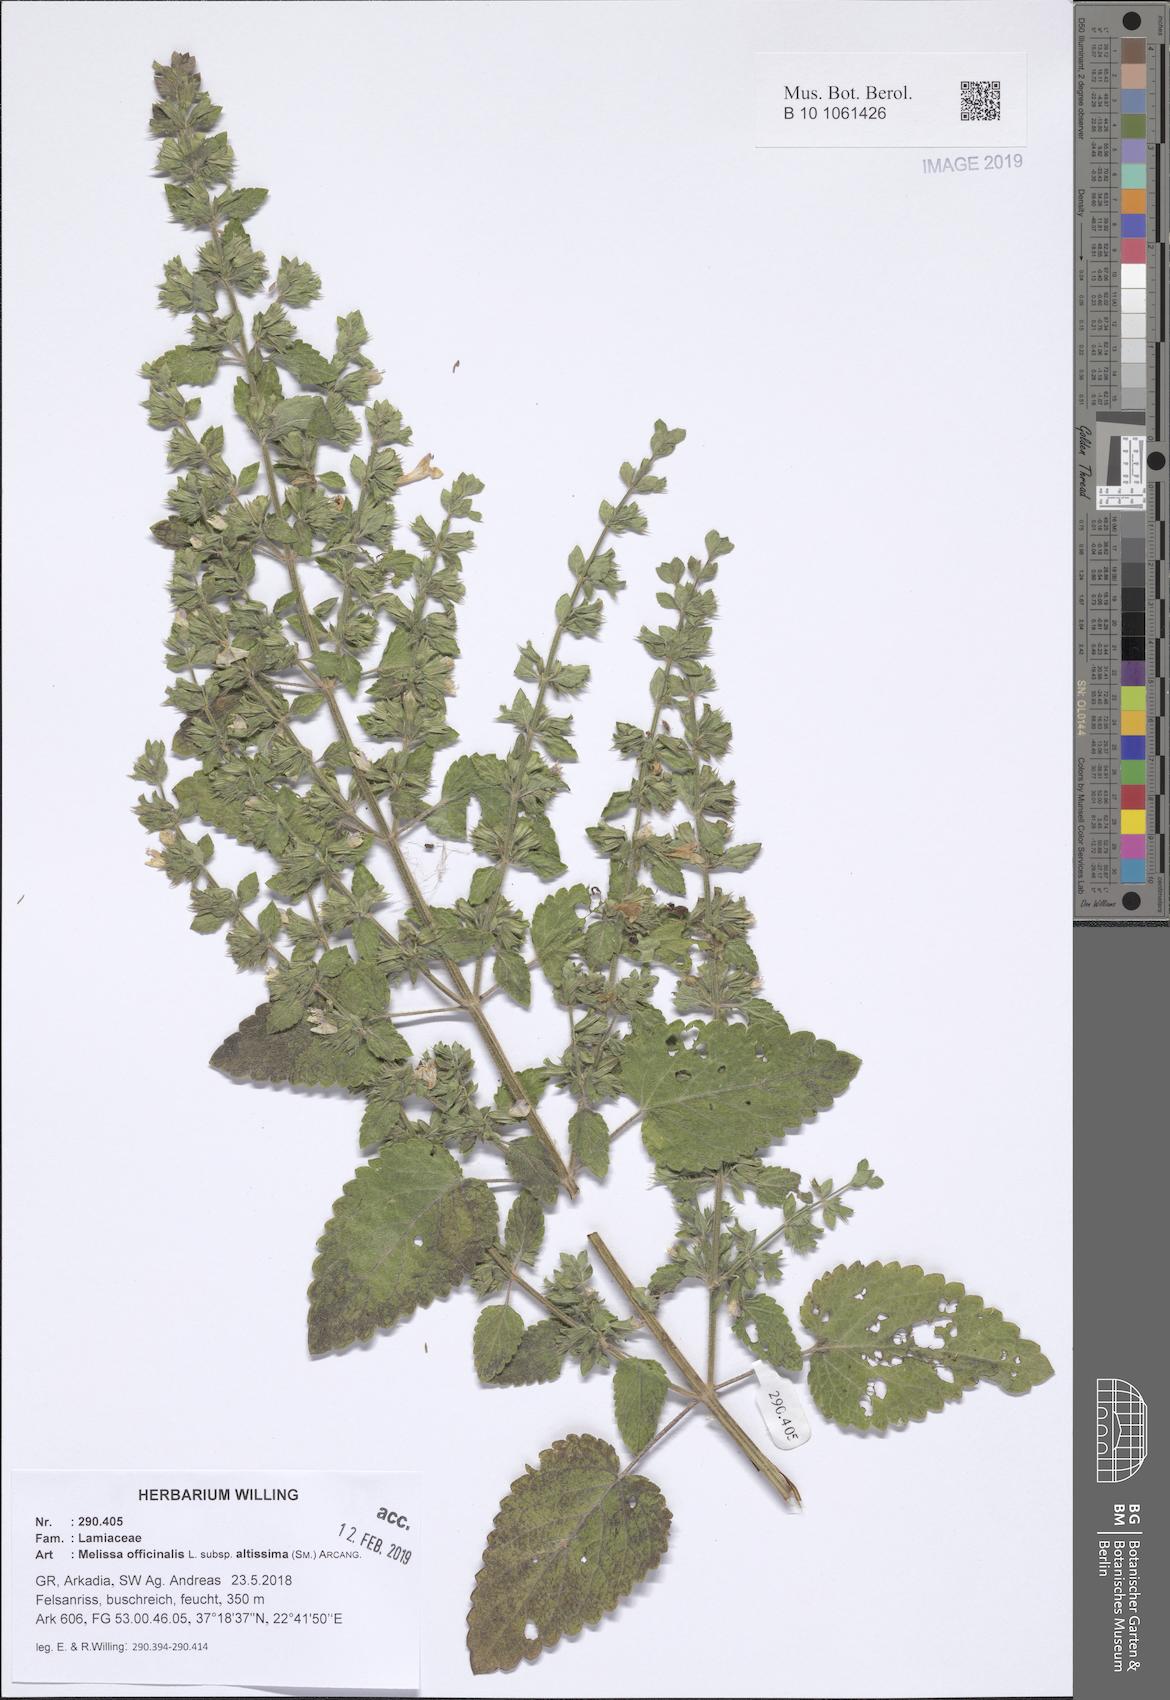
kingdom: Plantae
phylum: Tracheophyta
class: Magnoliopsida
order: Lamiales
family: Lamiaceae
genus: Melissa
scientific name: Melissa officinalis
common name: Balm
